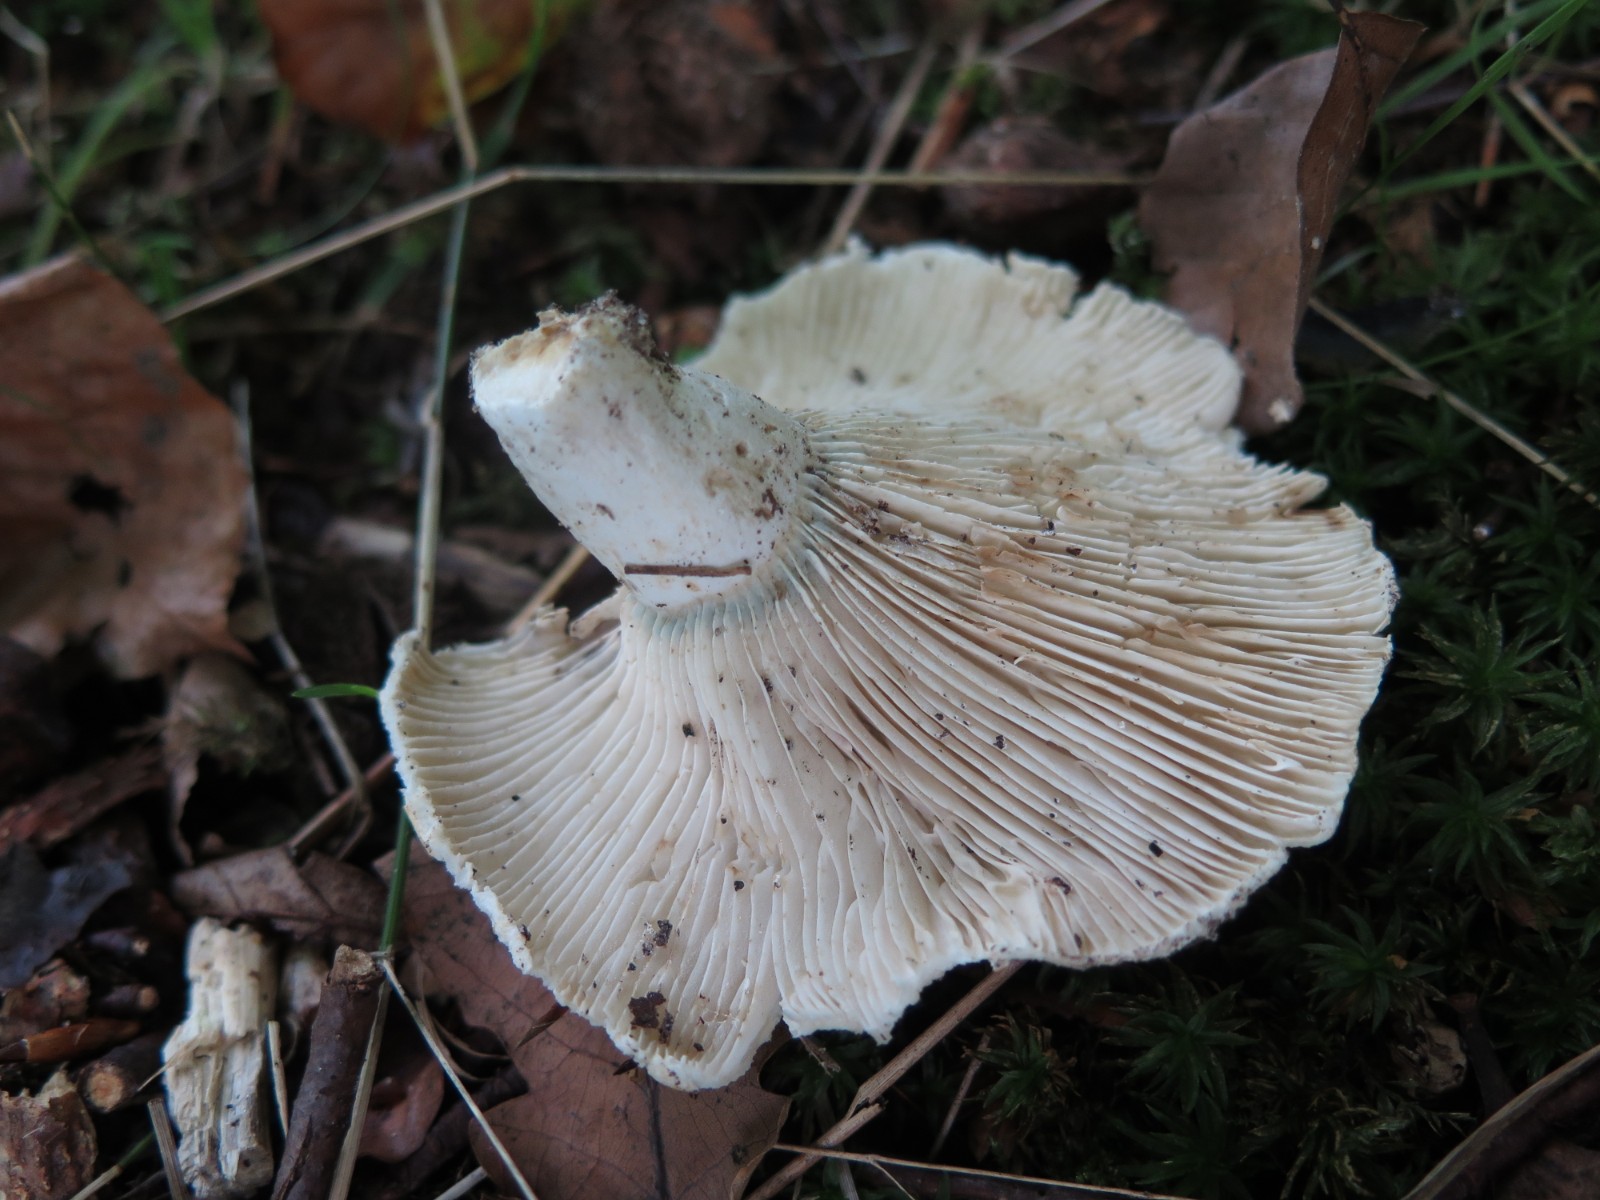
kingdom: Fungi
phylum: Basidiomycota
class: Agaricomycetes
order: Russulales
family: Russulaceae
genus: Russula
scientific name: Russula chloroides
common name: grønhalset tragt-skørhat
